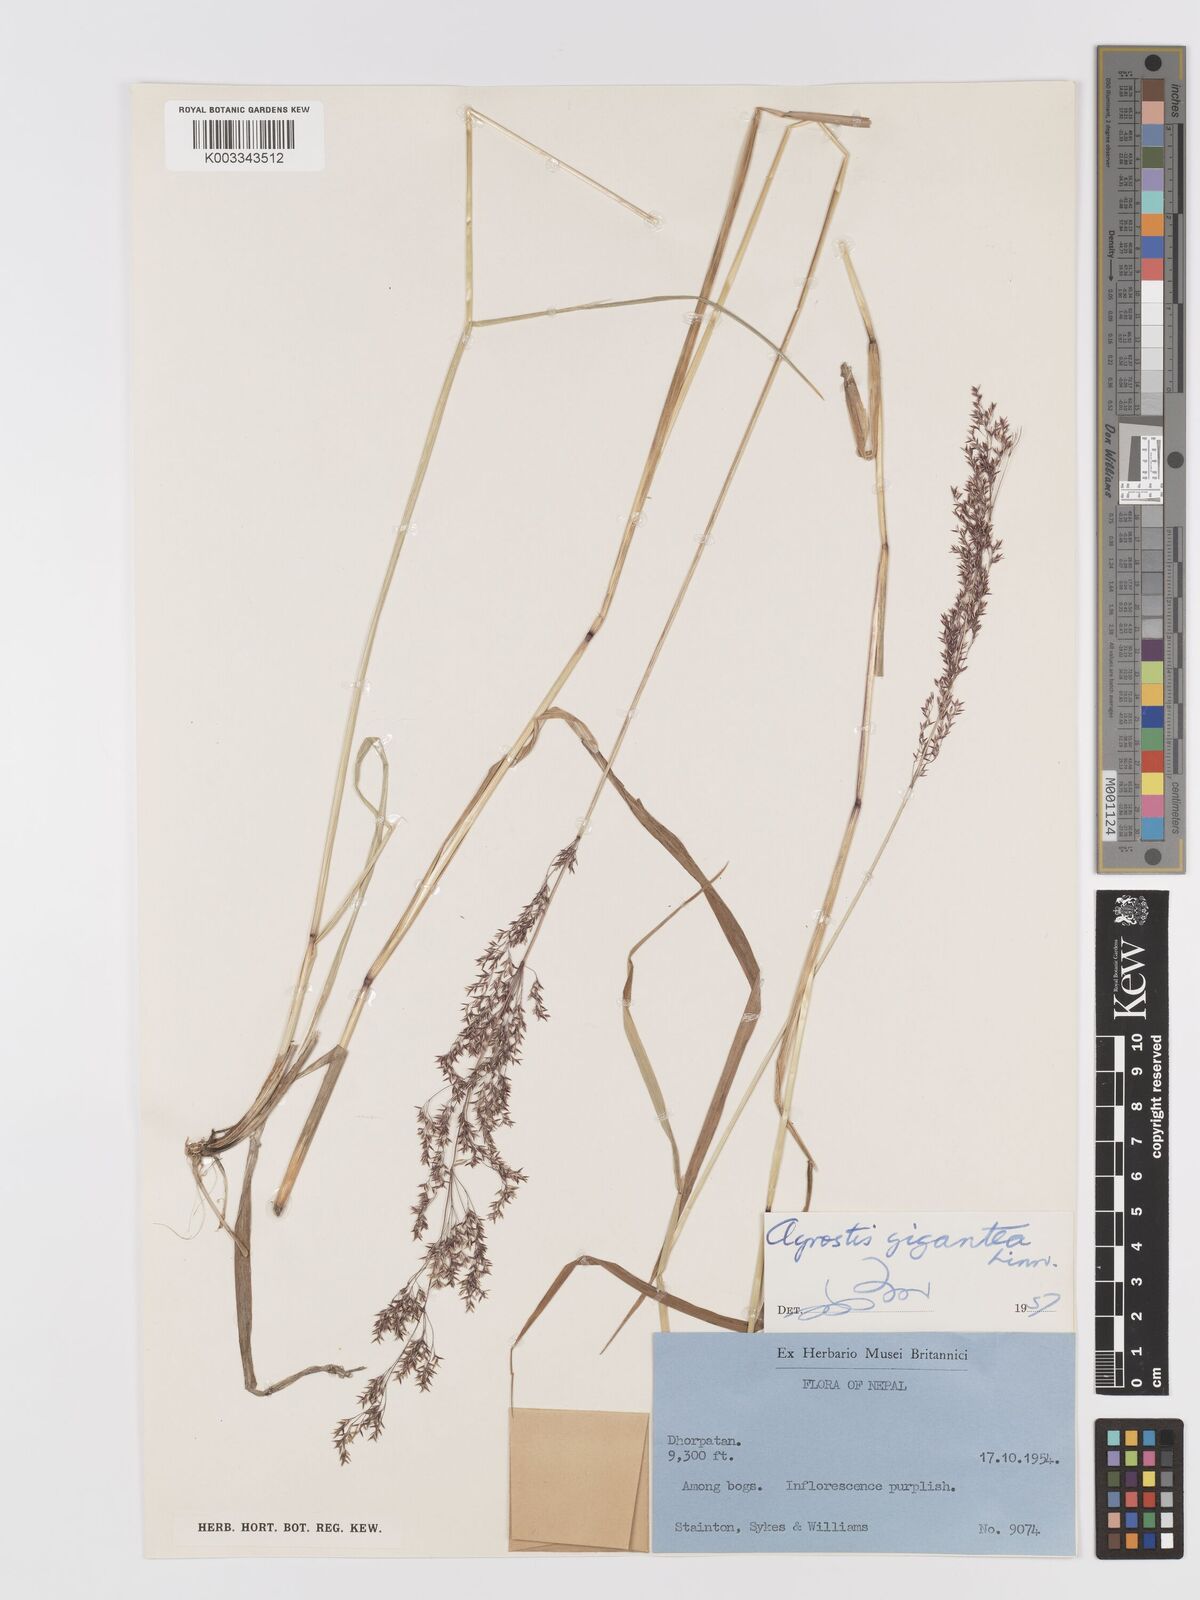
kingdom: Plantae
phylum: Tracheophyta
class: Liliopsida
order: Poales
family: Poaceae
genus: Agrostis
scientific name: Agrostis gigantea
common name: Black bent
